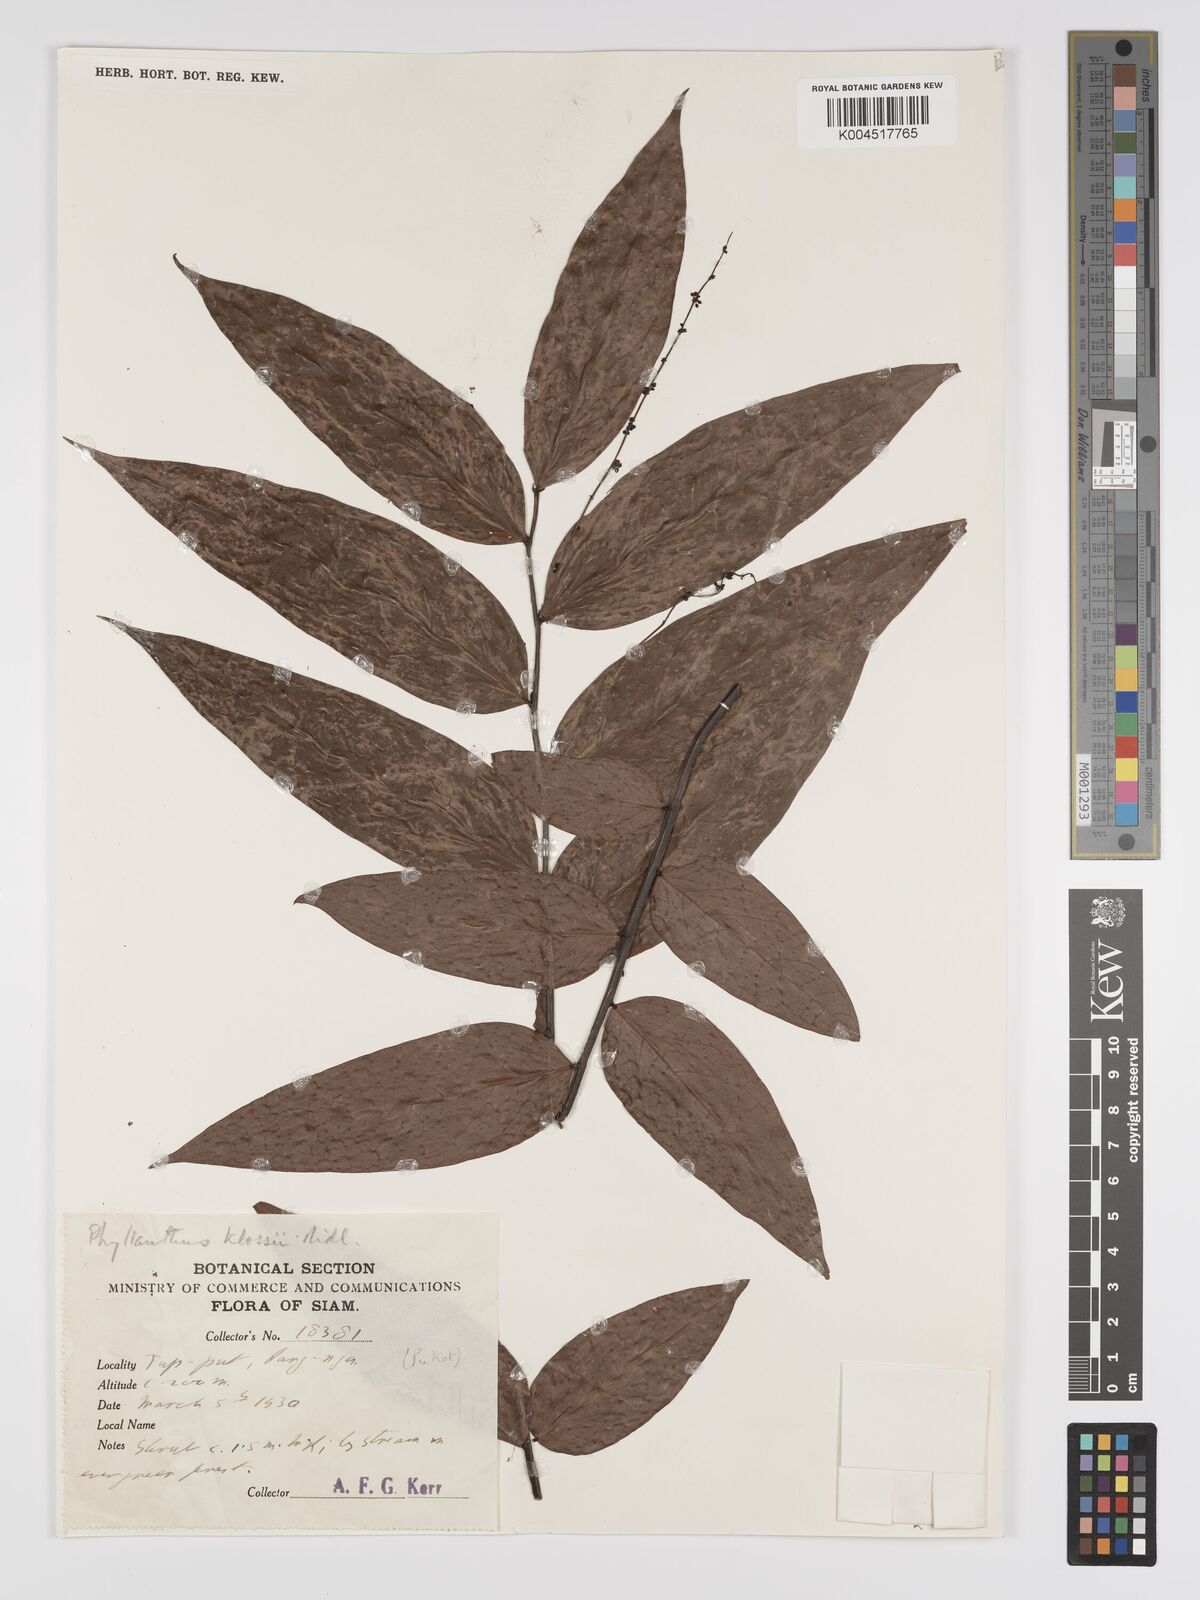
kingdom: Plantae
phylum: Tracheophyta
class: Magnoliopsida
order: Malpighiales
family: Phyllanthaceae
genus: Phyllanthus
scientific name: Phyllanthus pachyphyllus
